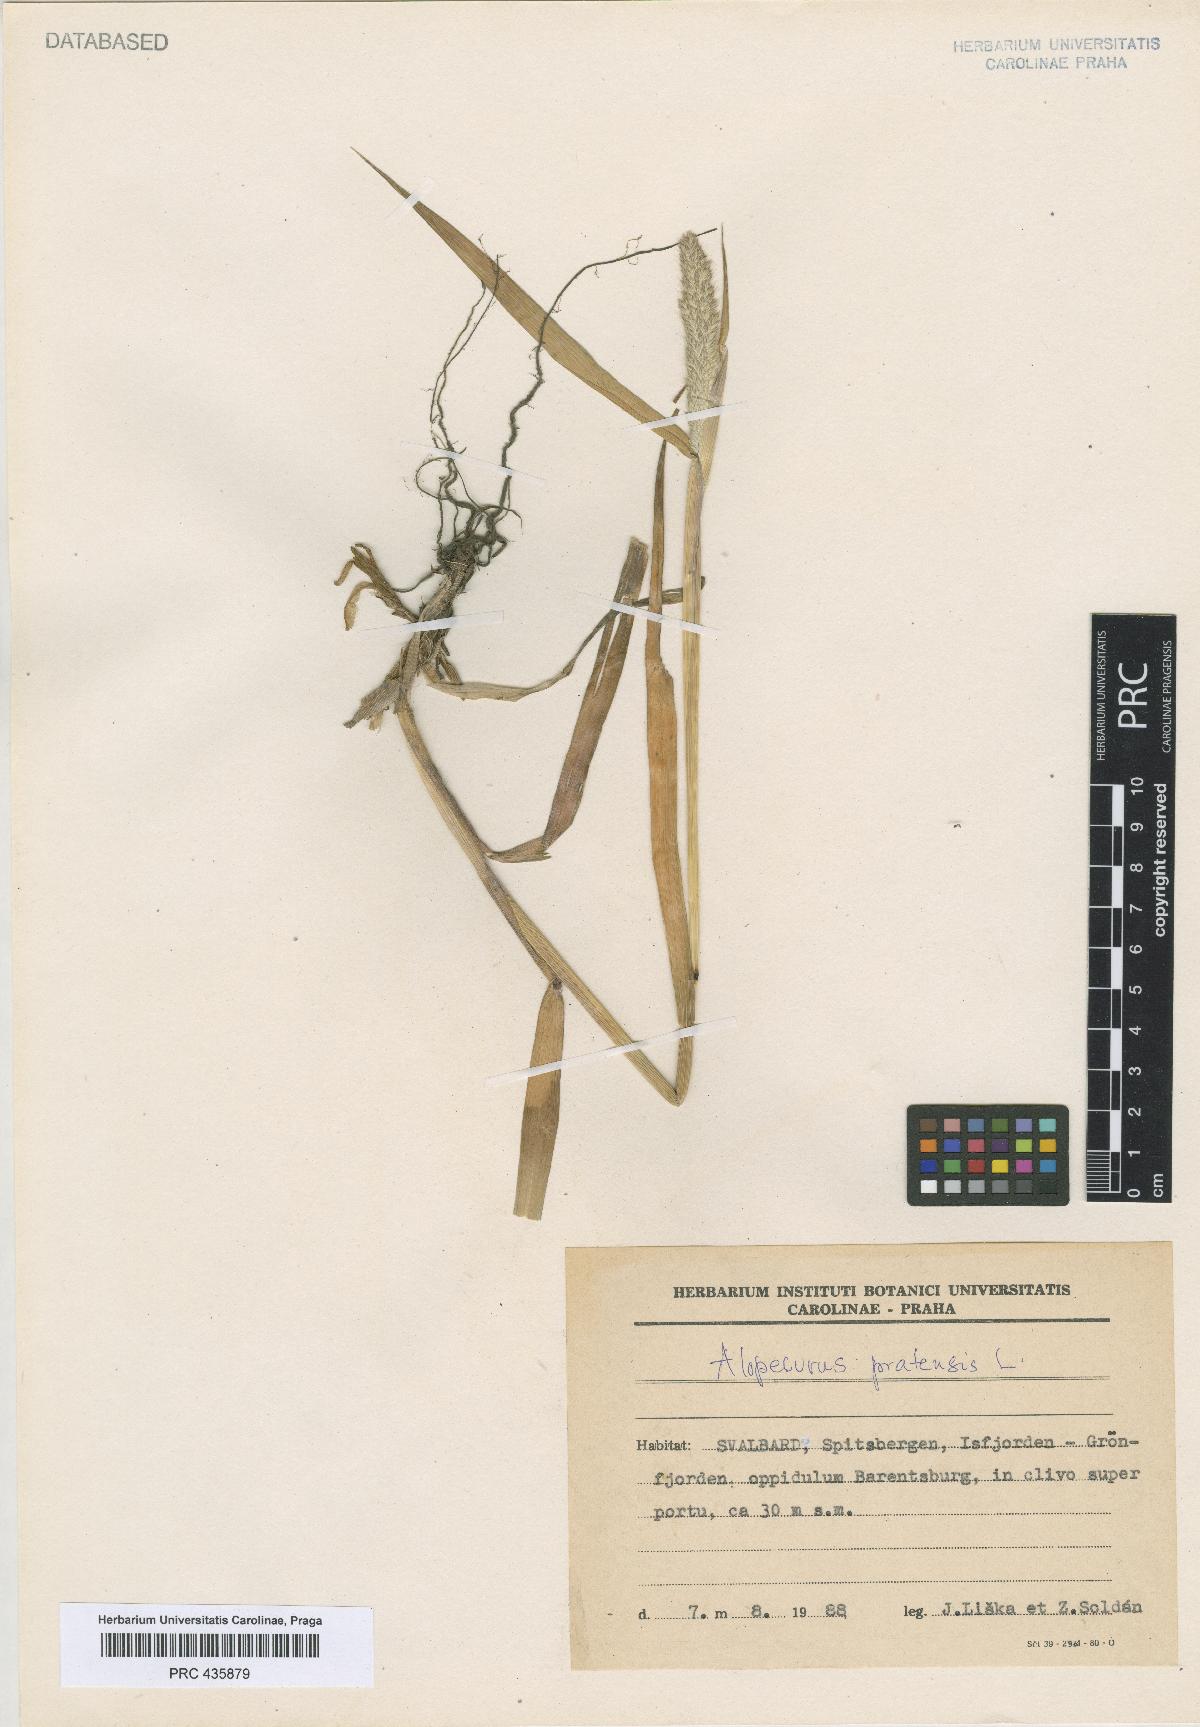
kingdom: Plantae
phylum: Tracheophyta
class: Liliopsida
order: Poales
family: Poaceae
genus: Alopecurus
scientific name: Alopecurus pratensis
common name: Meadow foxtail
